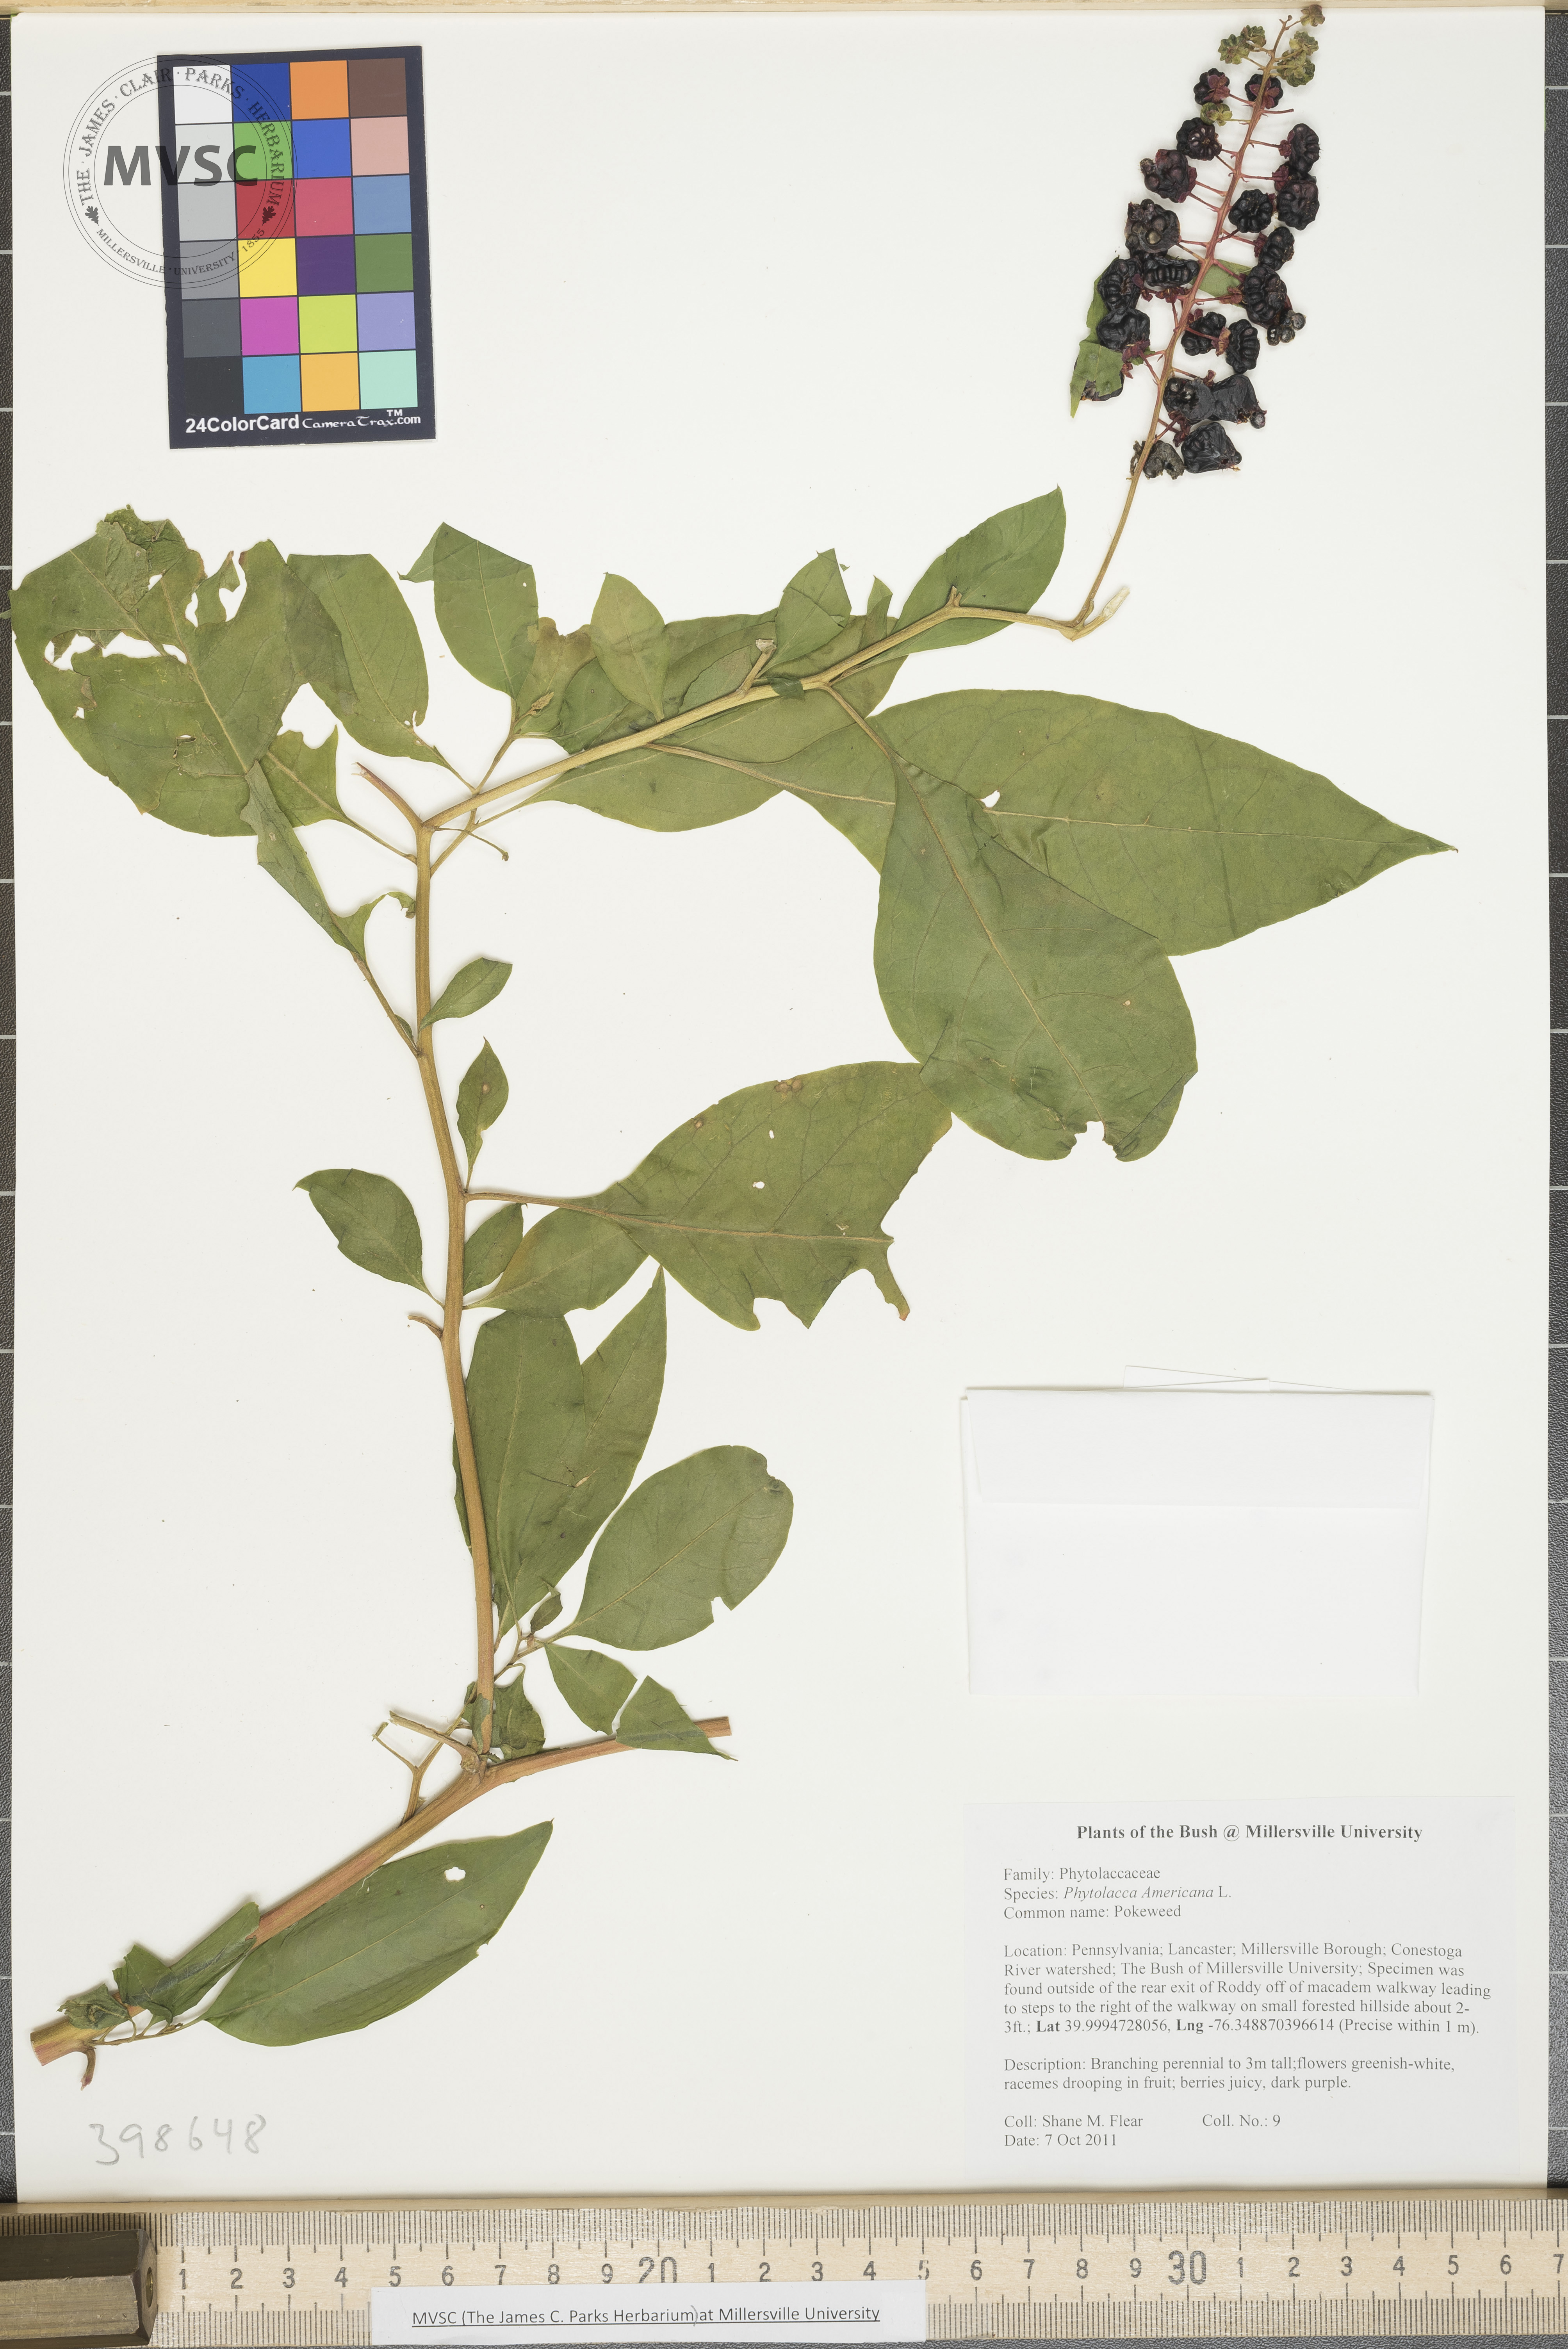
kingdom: Plantae
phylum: Tracheophyta
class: Magnoliopsida
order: Caryophyllales
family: Phytolaccaceae
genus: Phytolacca
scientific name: Phytolacca americana
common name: Pokeweed
